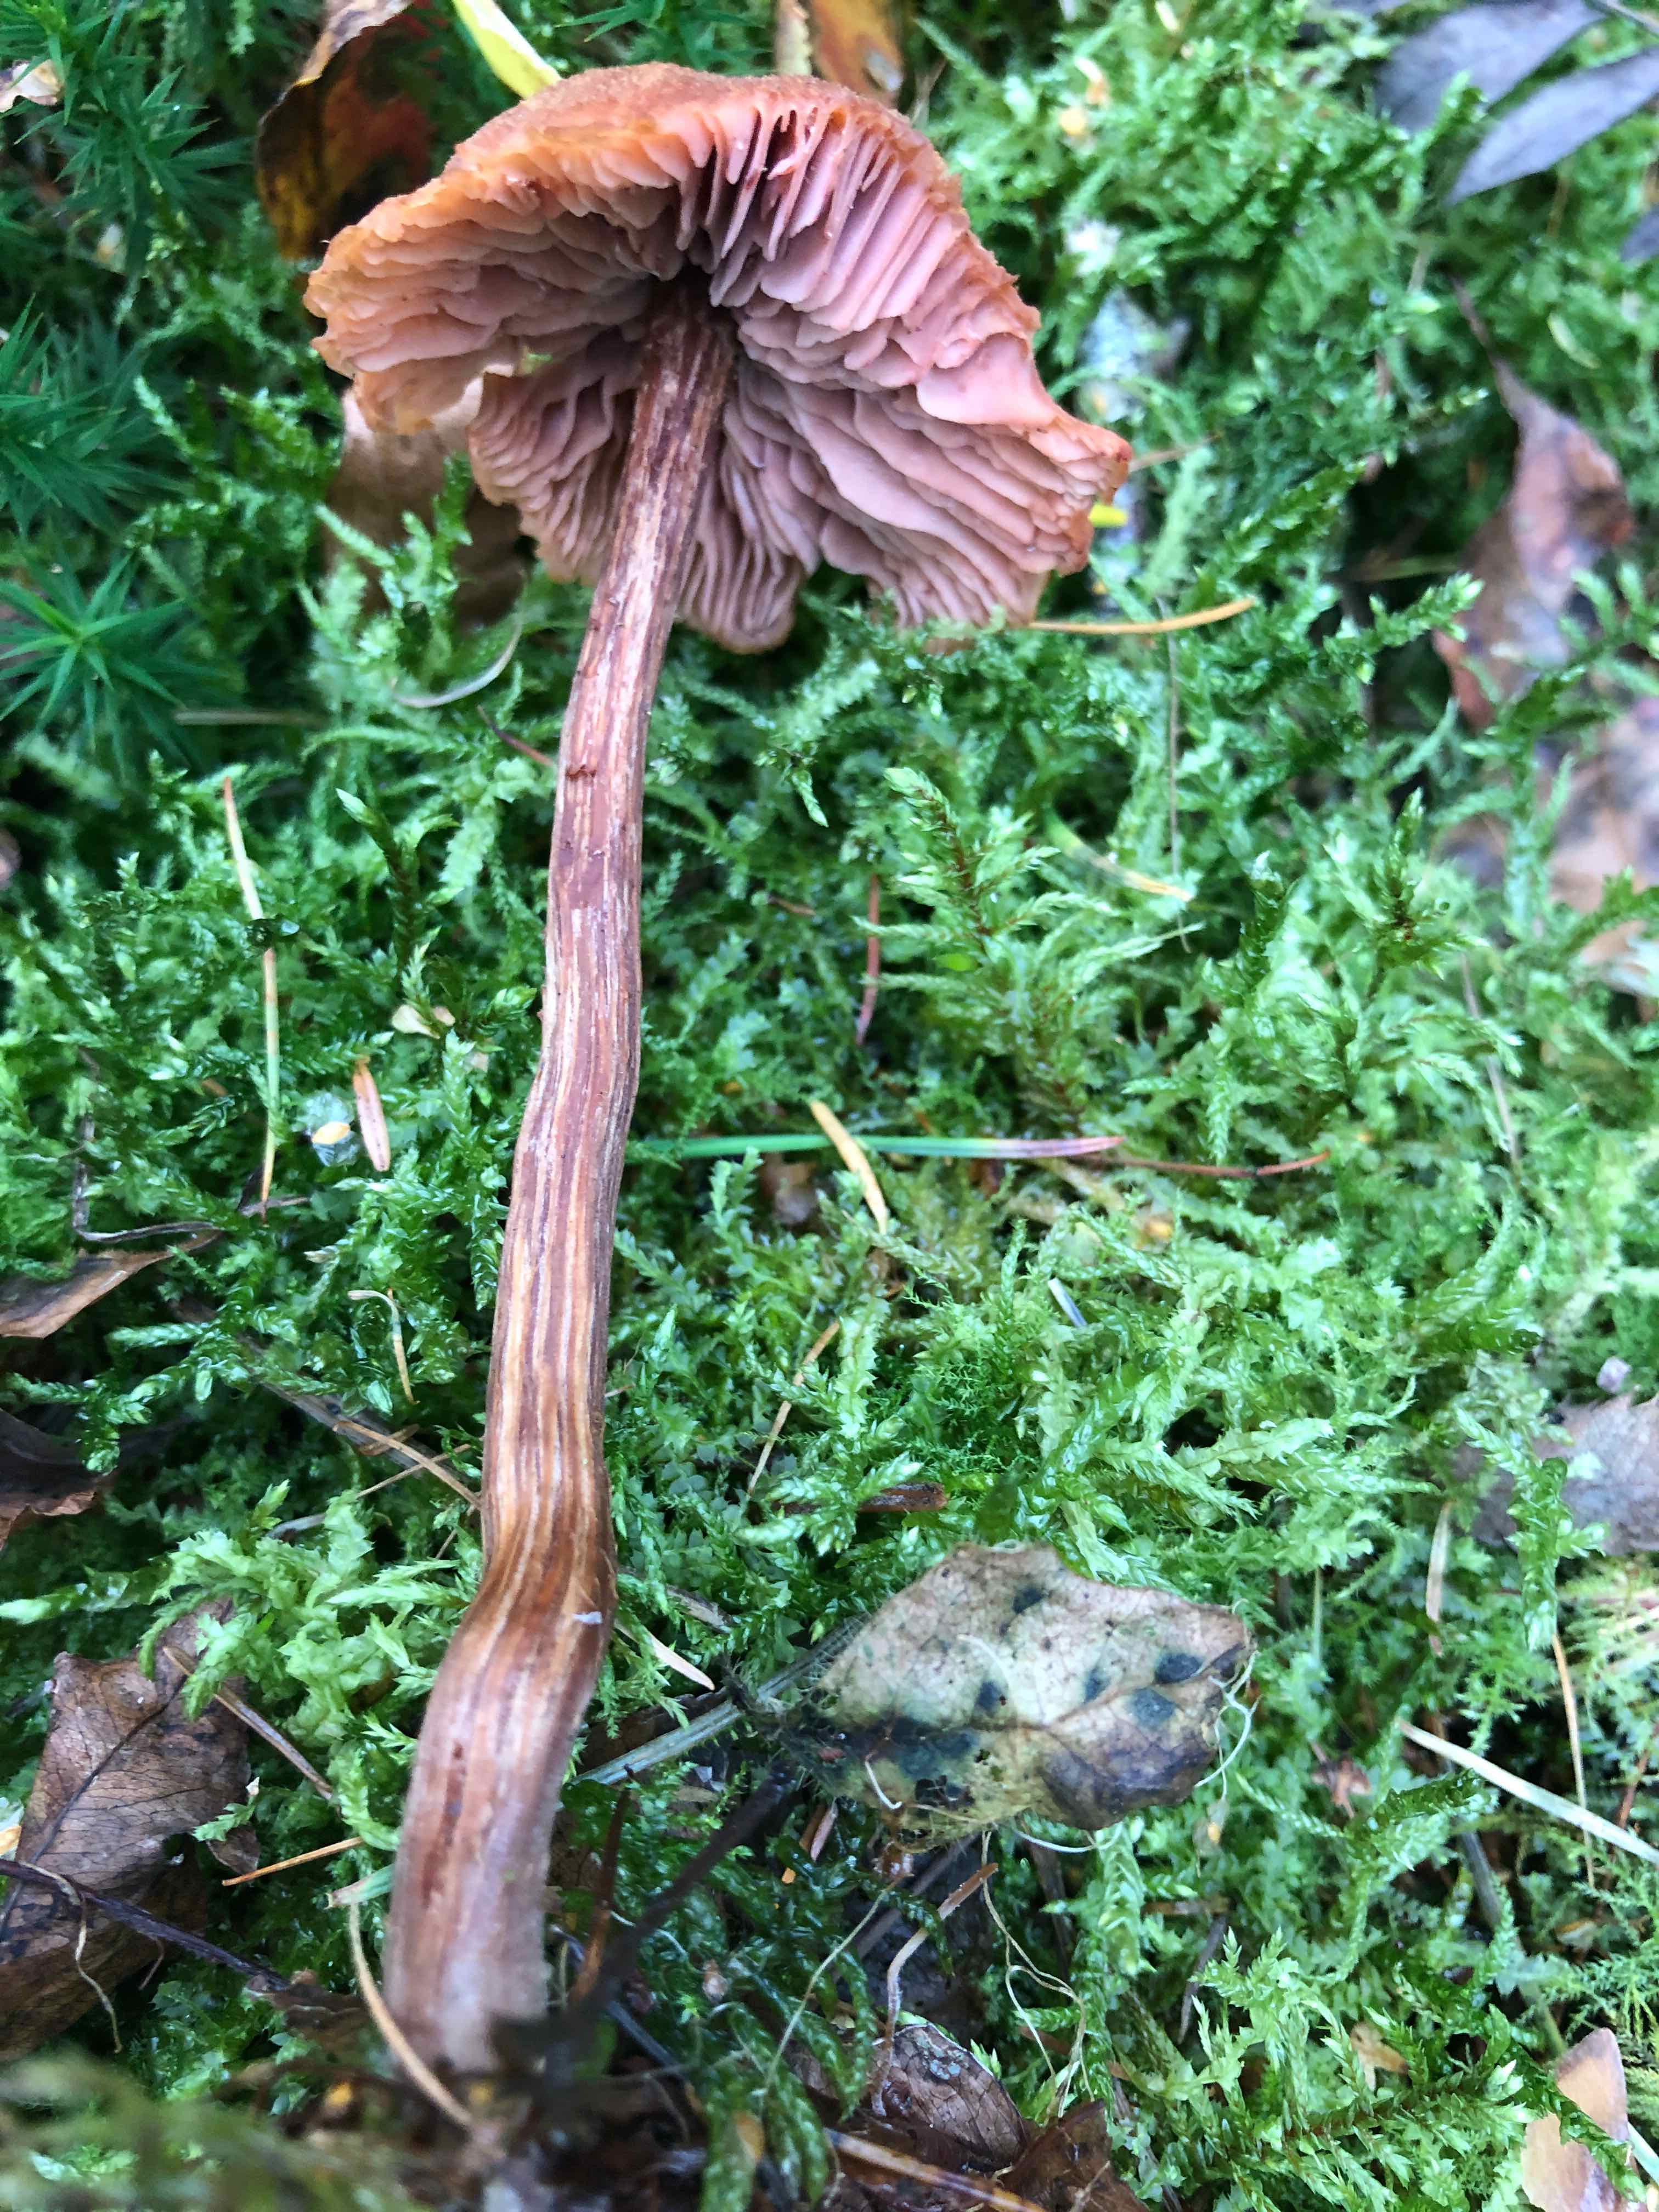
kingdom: Fungi
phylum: Basidiomycota
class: Agaricomycetes
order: Agaricales
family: Hydnangiaceae
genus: Laccaria
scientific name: Laccaria proxima
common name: stor ametysthat
